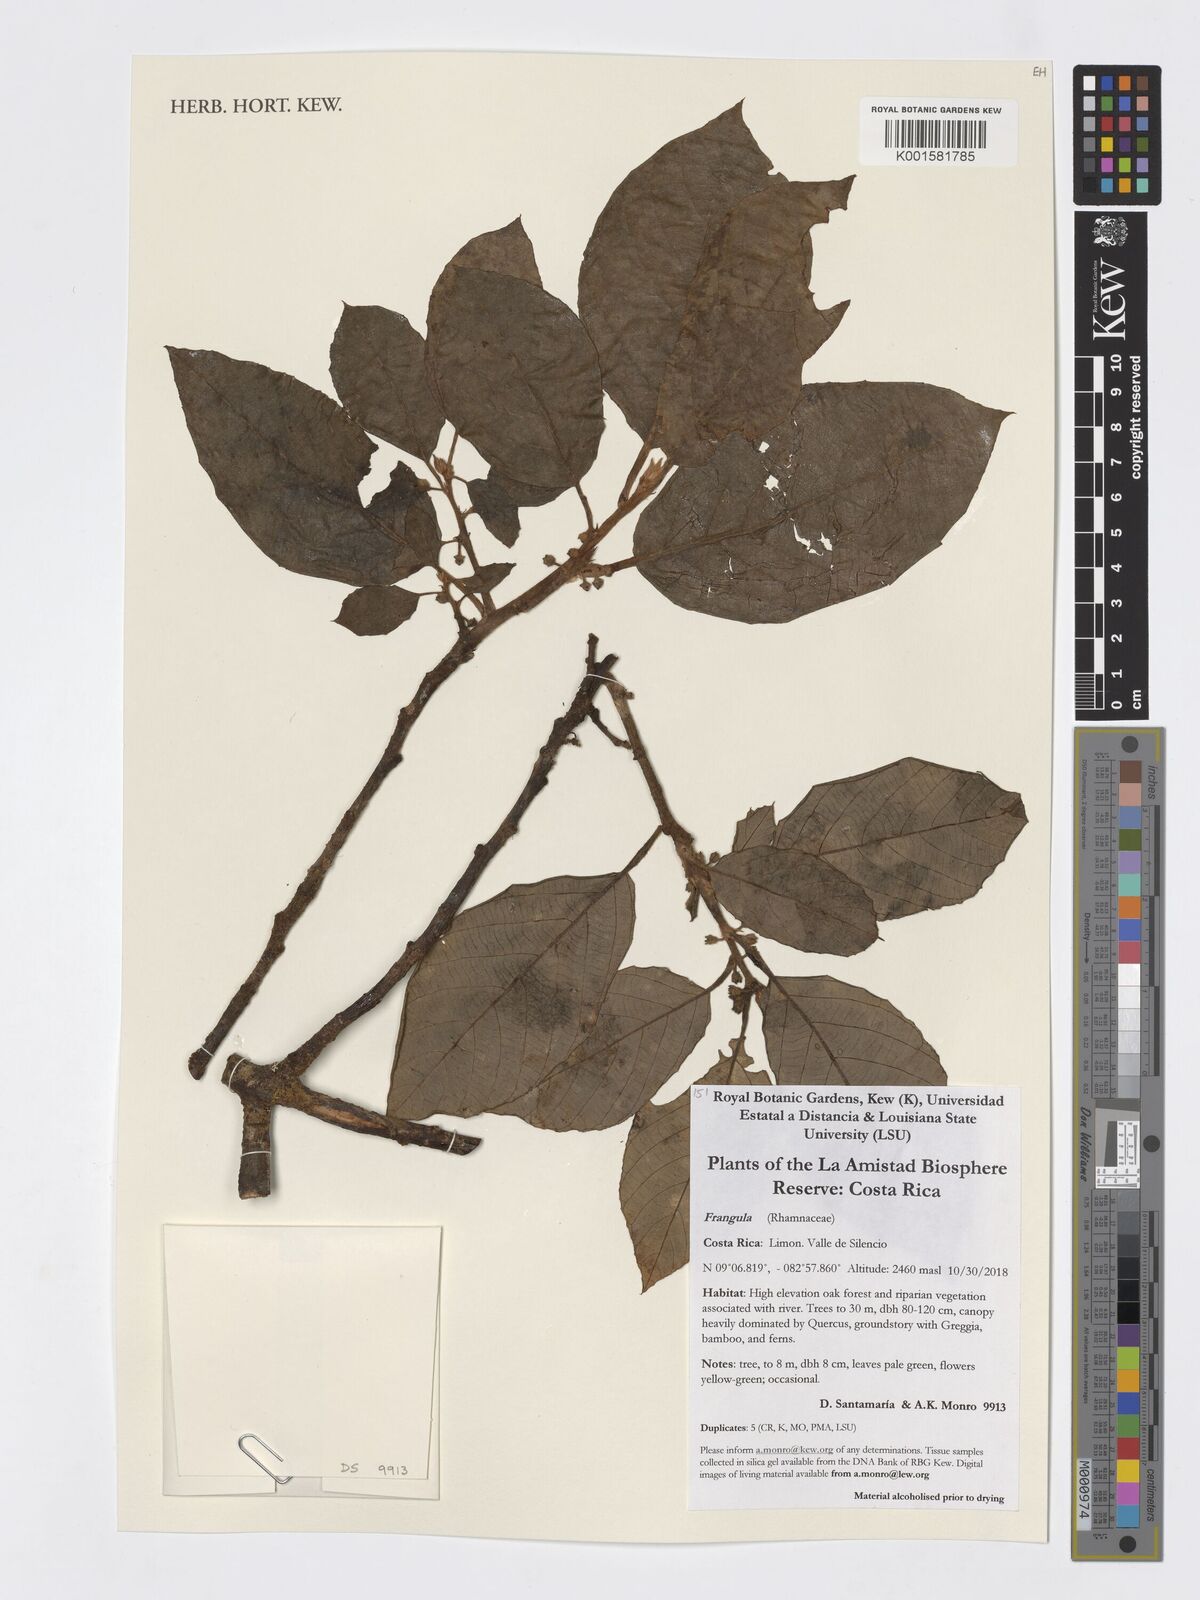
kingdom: Plantae
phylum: Tracheophyta
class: Magnoliopsida
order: Rosales
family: Rhamnaceae
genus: Frangula
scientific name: Frangula
